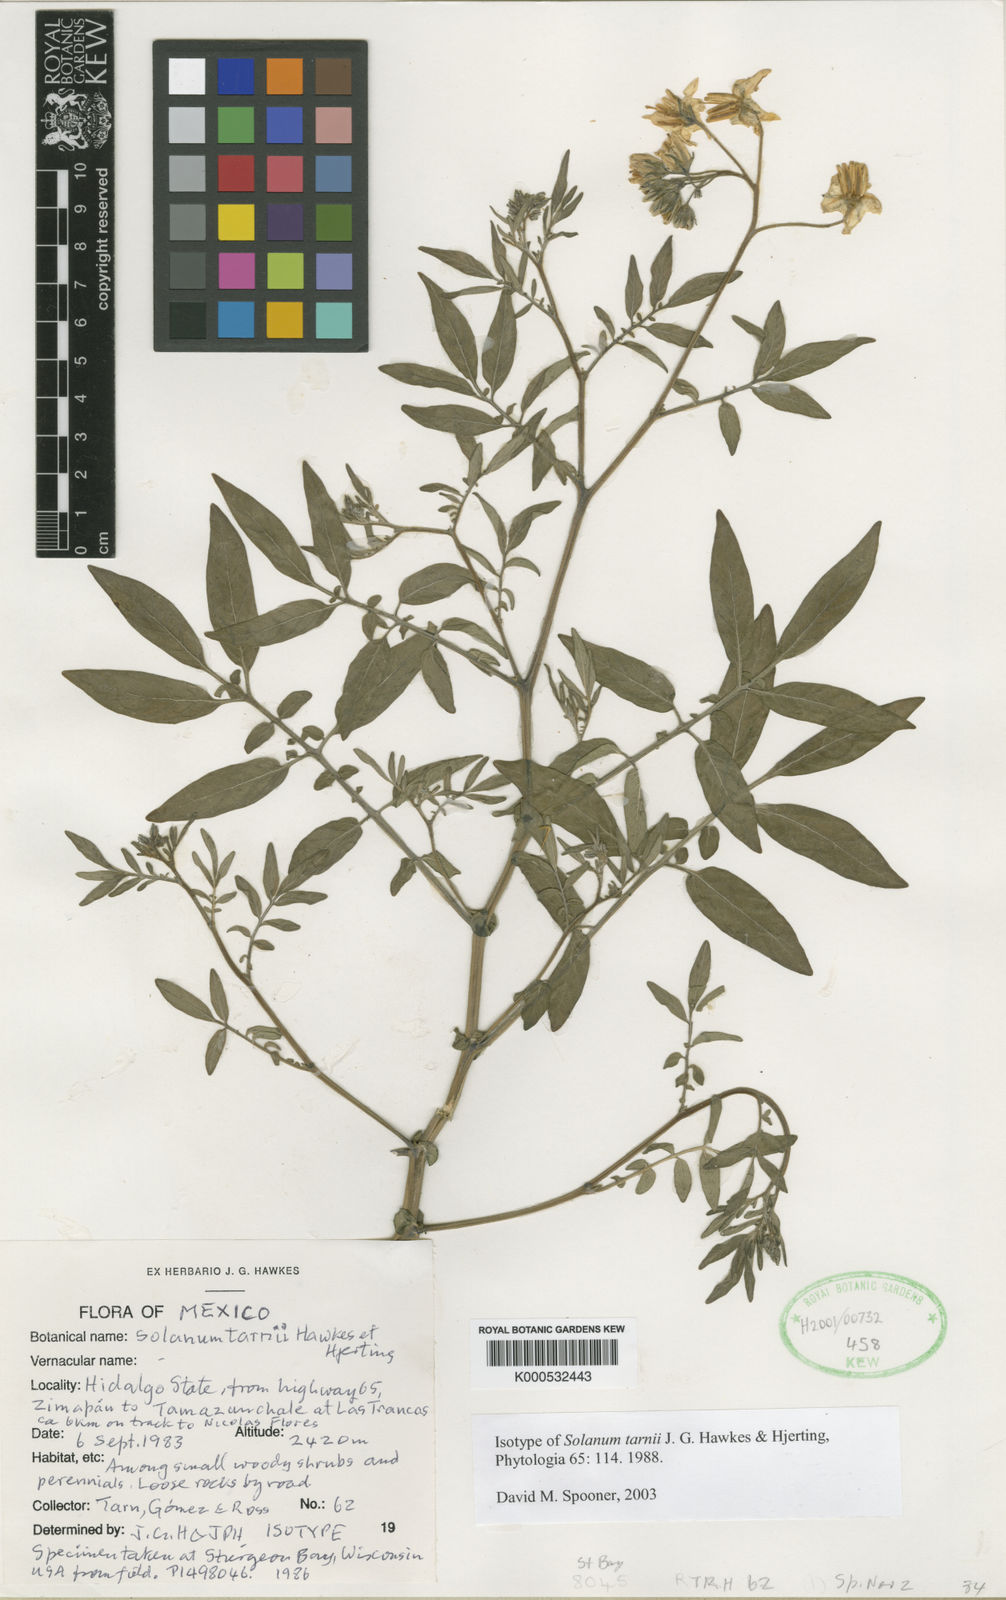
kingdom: Plantae
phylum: Tracheophyta
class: Magnoliopsida
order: Solanales
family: Solanaceae
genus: Solanum
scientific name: Solanum tarnii
